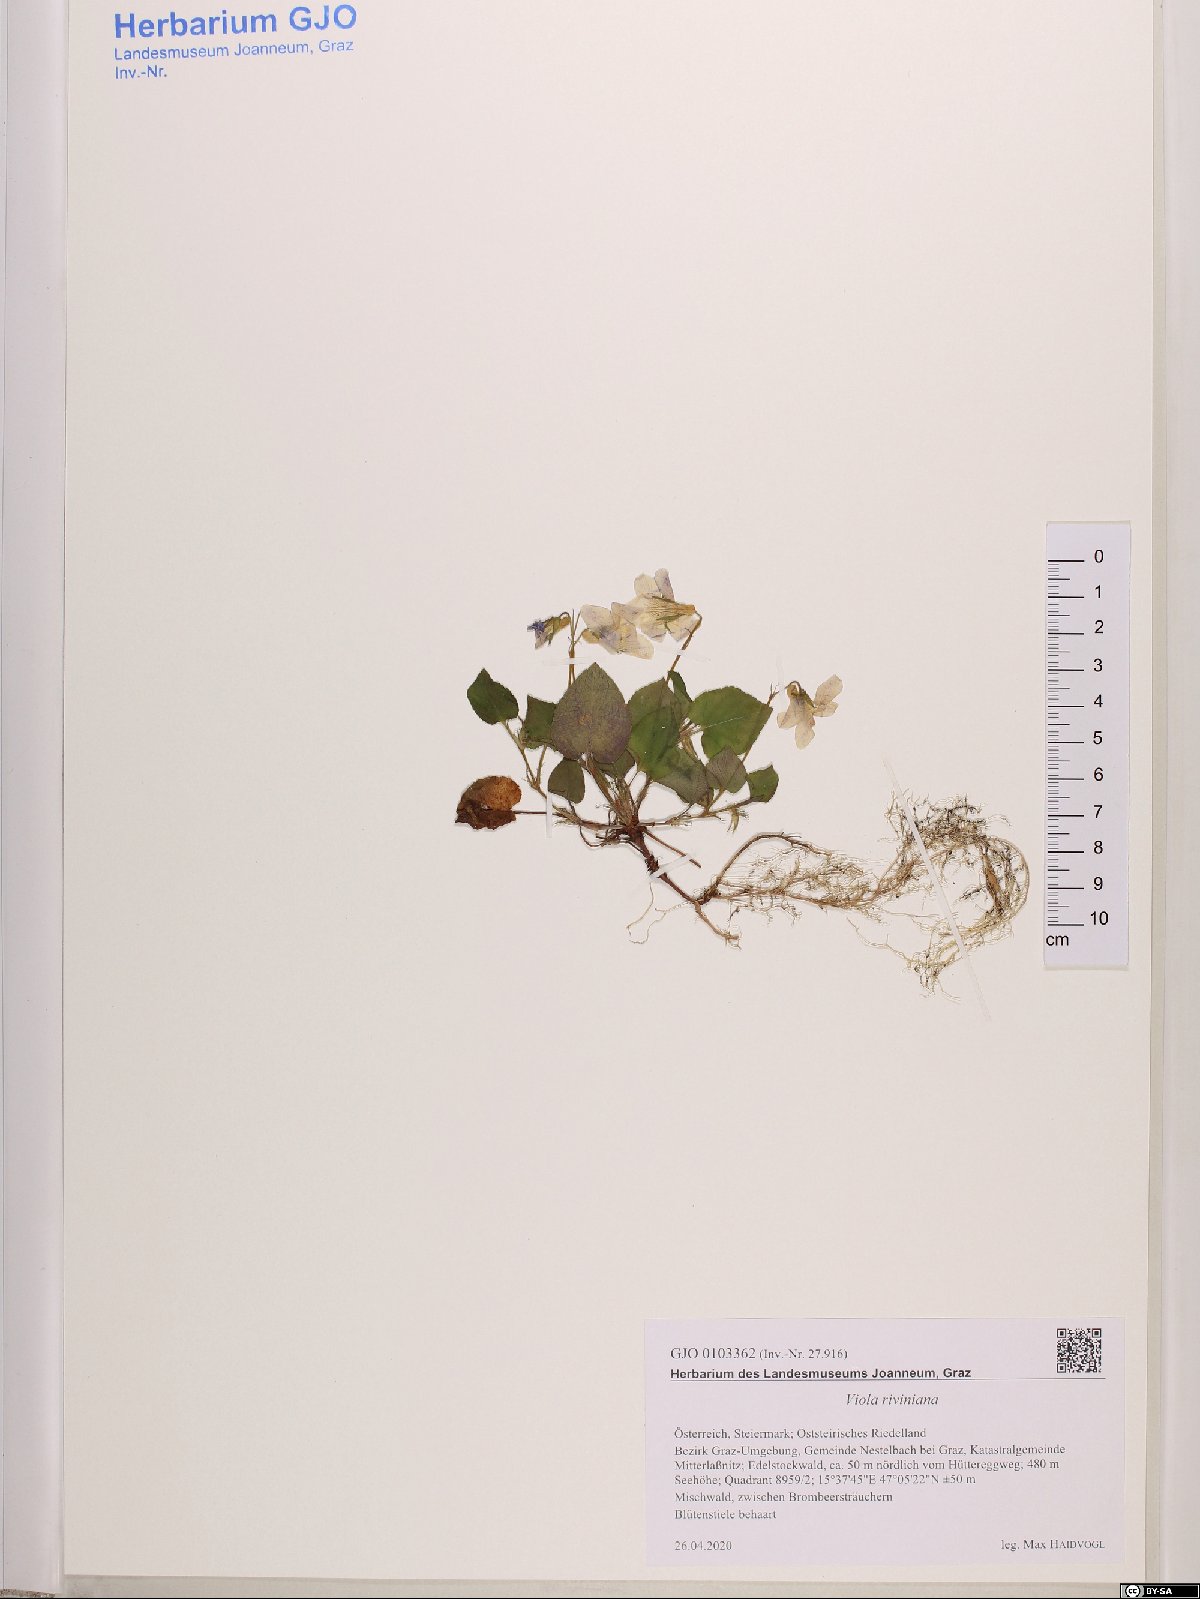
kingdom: Plantae
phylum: Tracheophyta
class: Magnoliopsida
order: Malpighiales
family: Violaceae
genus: Viola
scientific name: Viola riviniana
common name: Common dog-violet
